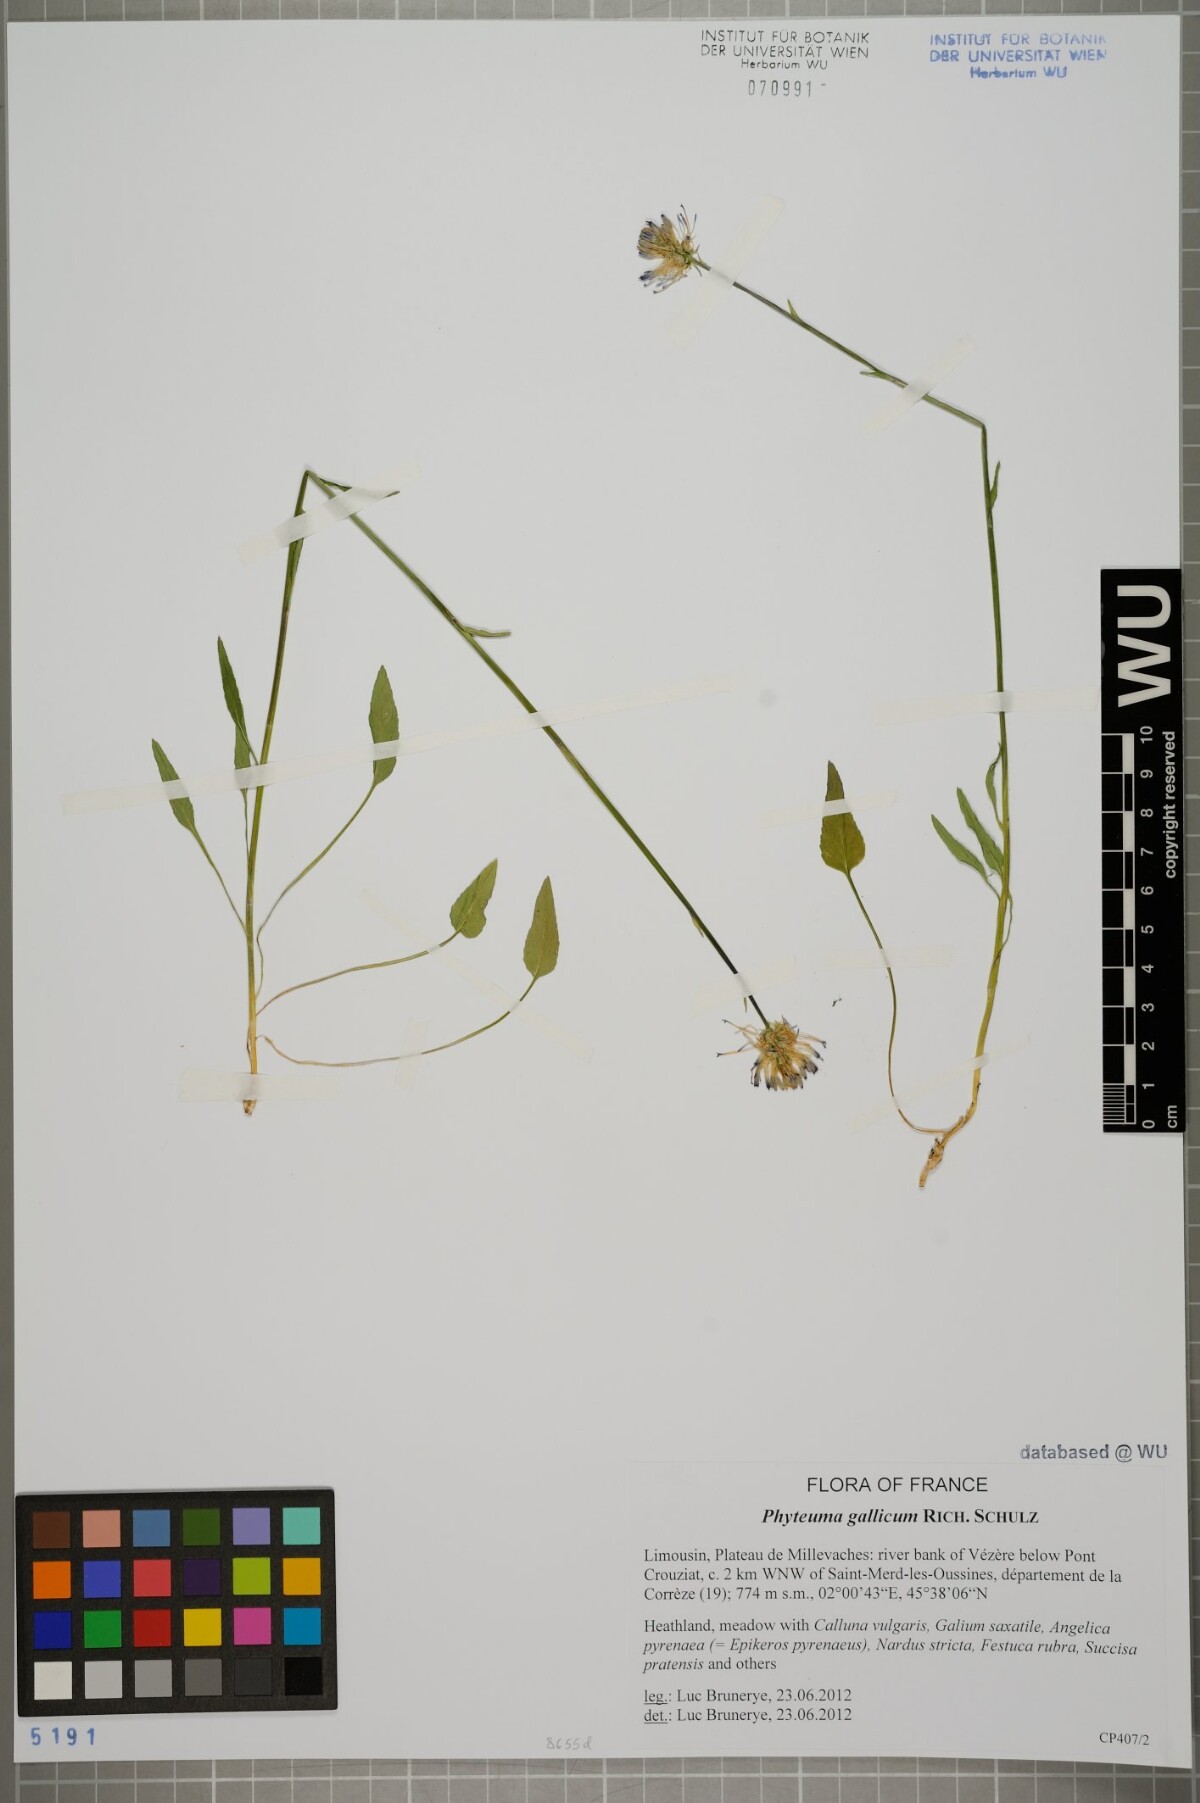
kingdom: Plantae
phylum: Tracheophyta
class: Magnoliopsida
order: Asterales
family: Campanulaceae
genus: Phyteuma
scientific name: Phyteuma gallicum
